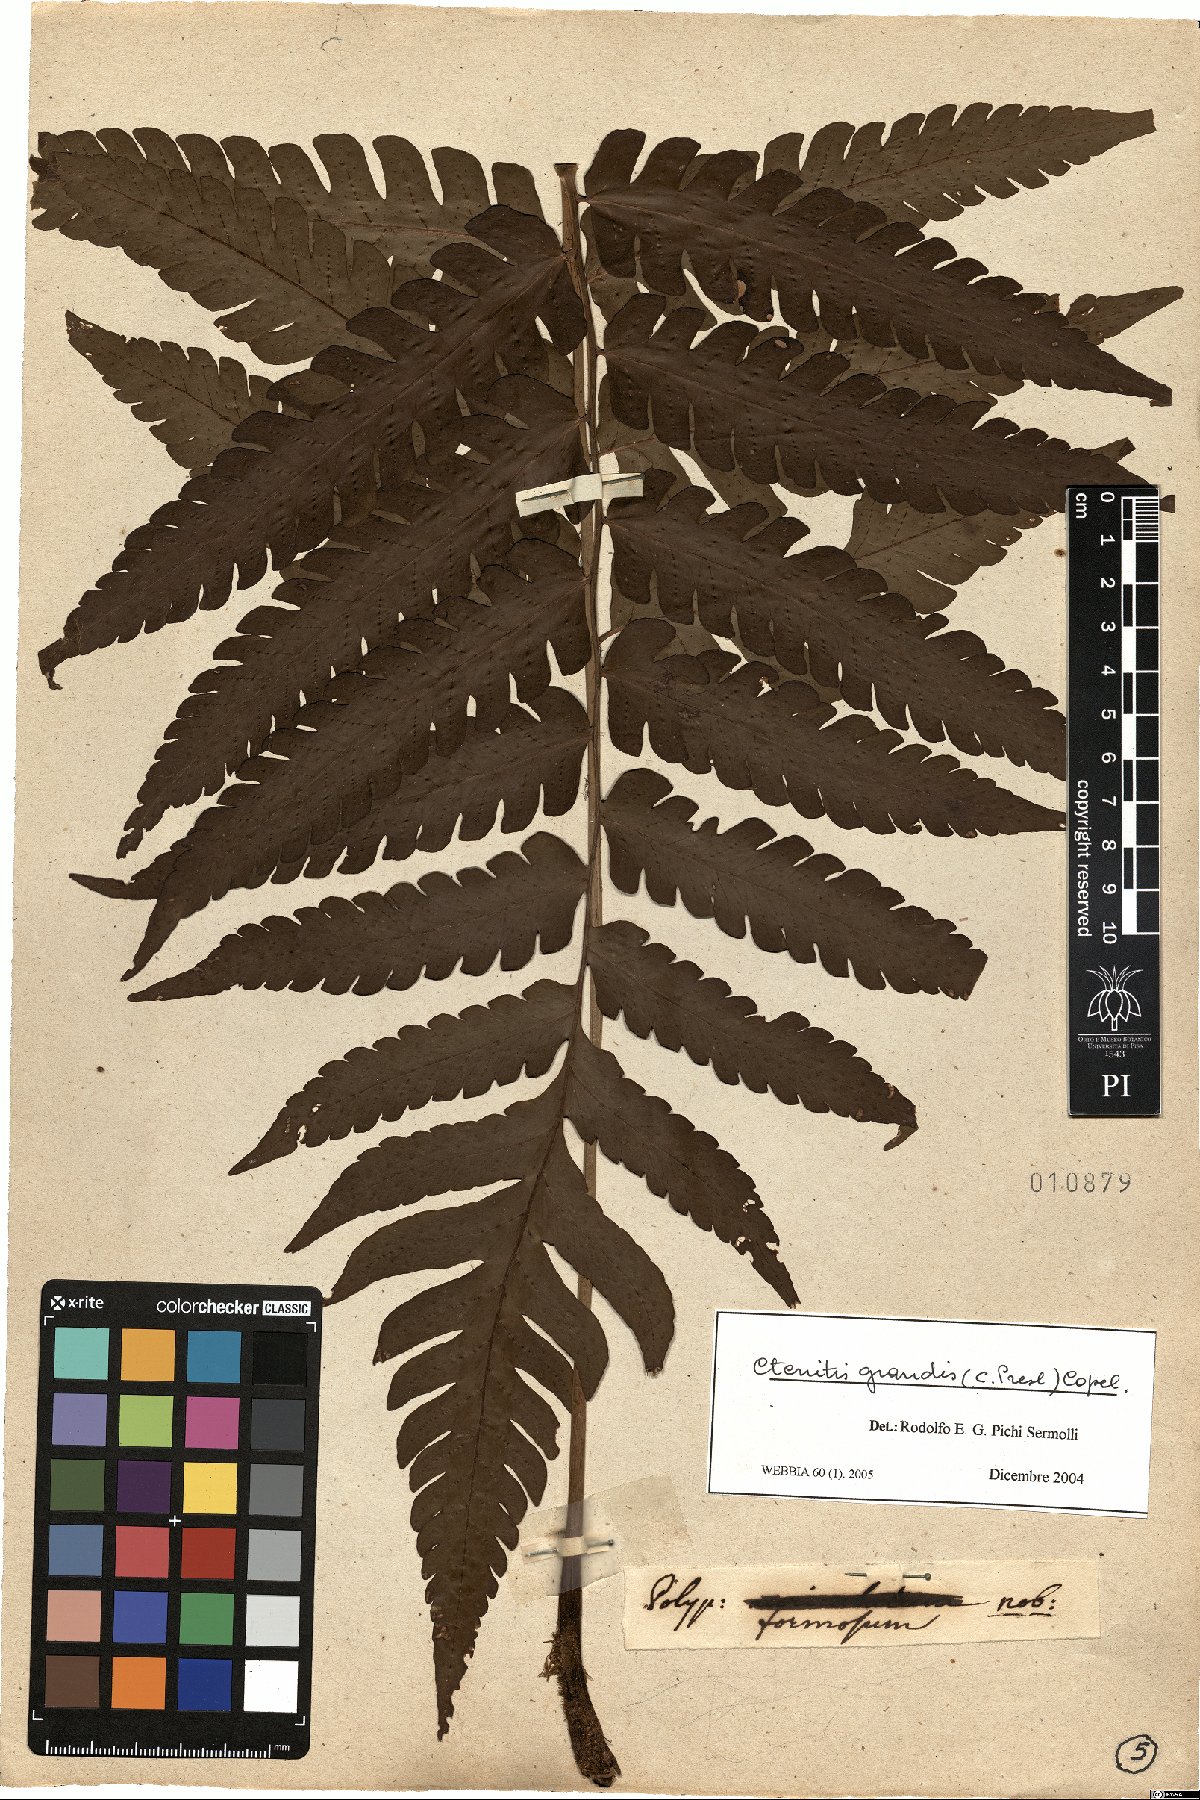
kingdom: Plantae
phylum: Tracheophyta
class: Polypodiopsida
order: Polypodiales
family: Dryopteridaceae
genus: Megalastrum
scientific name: Megalastrum grande
